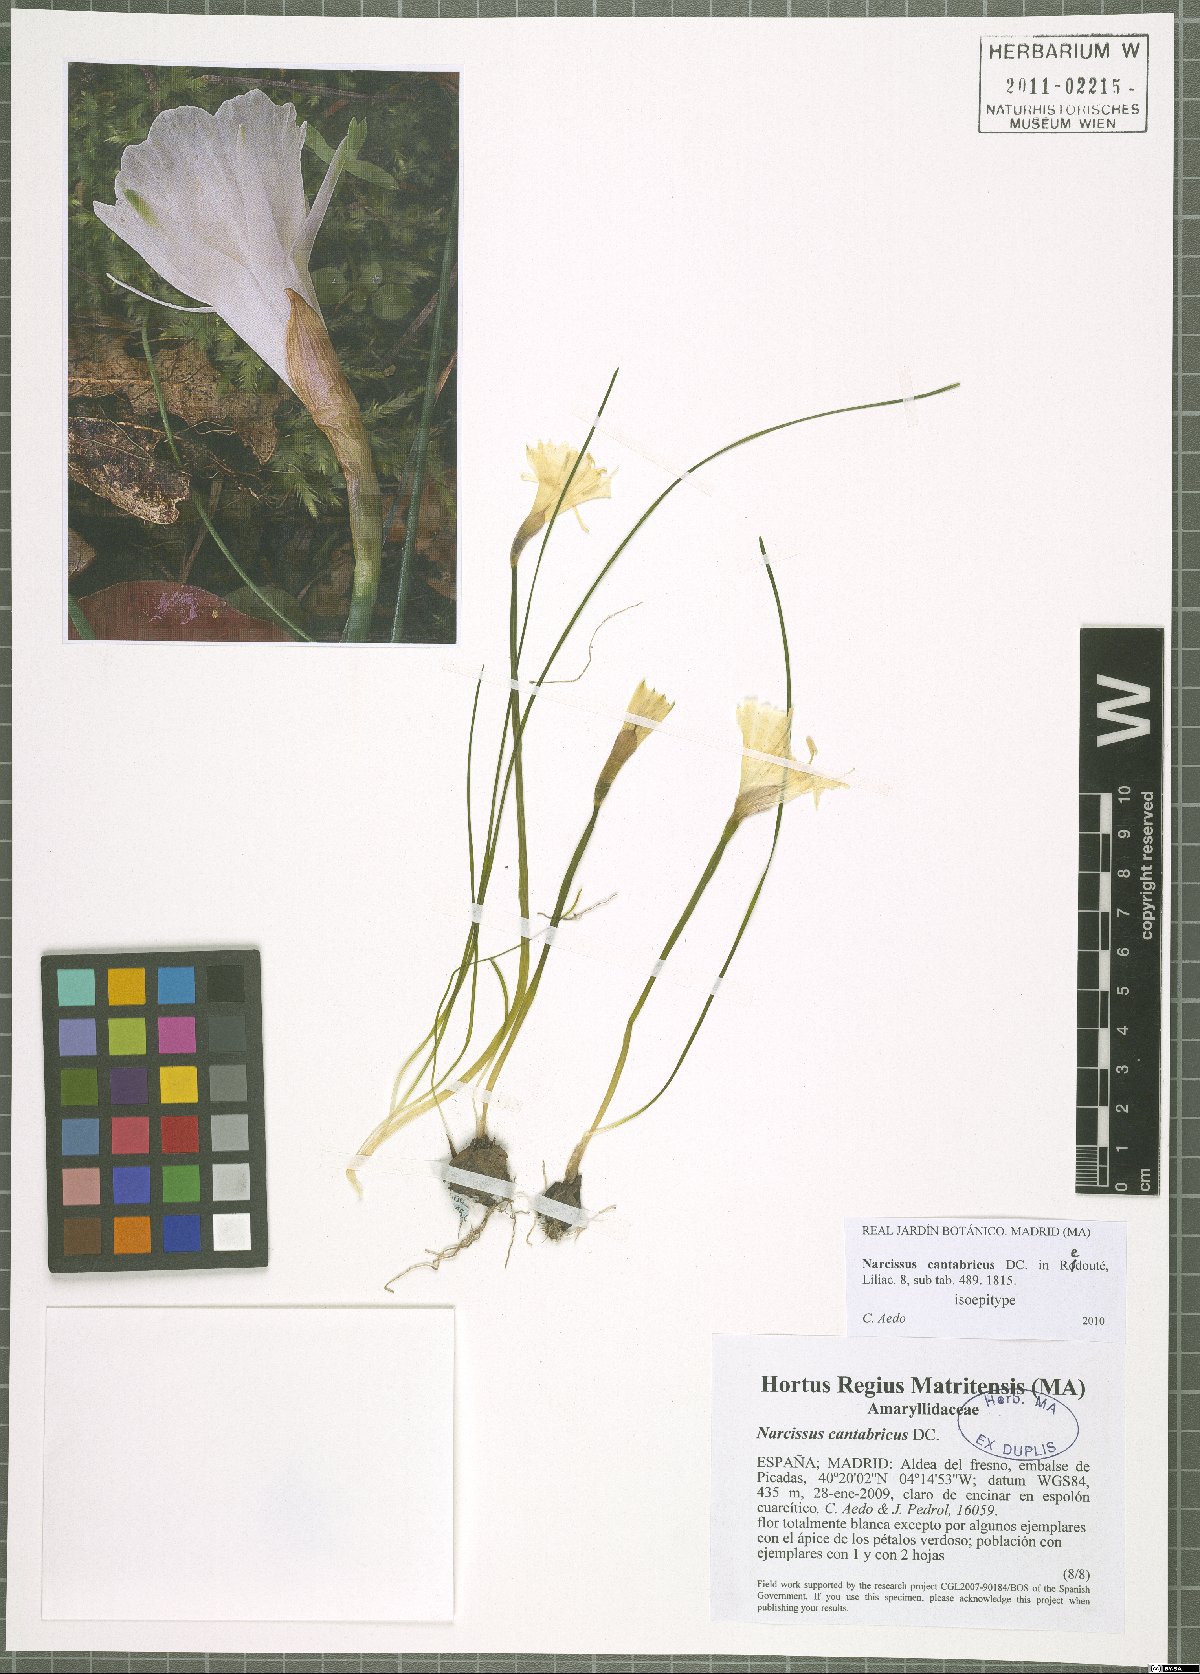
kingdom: Plantae
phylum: Tracheophyta
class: Liliopsida
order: Asparagales
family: Amaryllidaceae
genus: Narcissus
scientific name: Narcissus cantabricus
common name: White hoop petticoat daffodil
